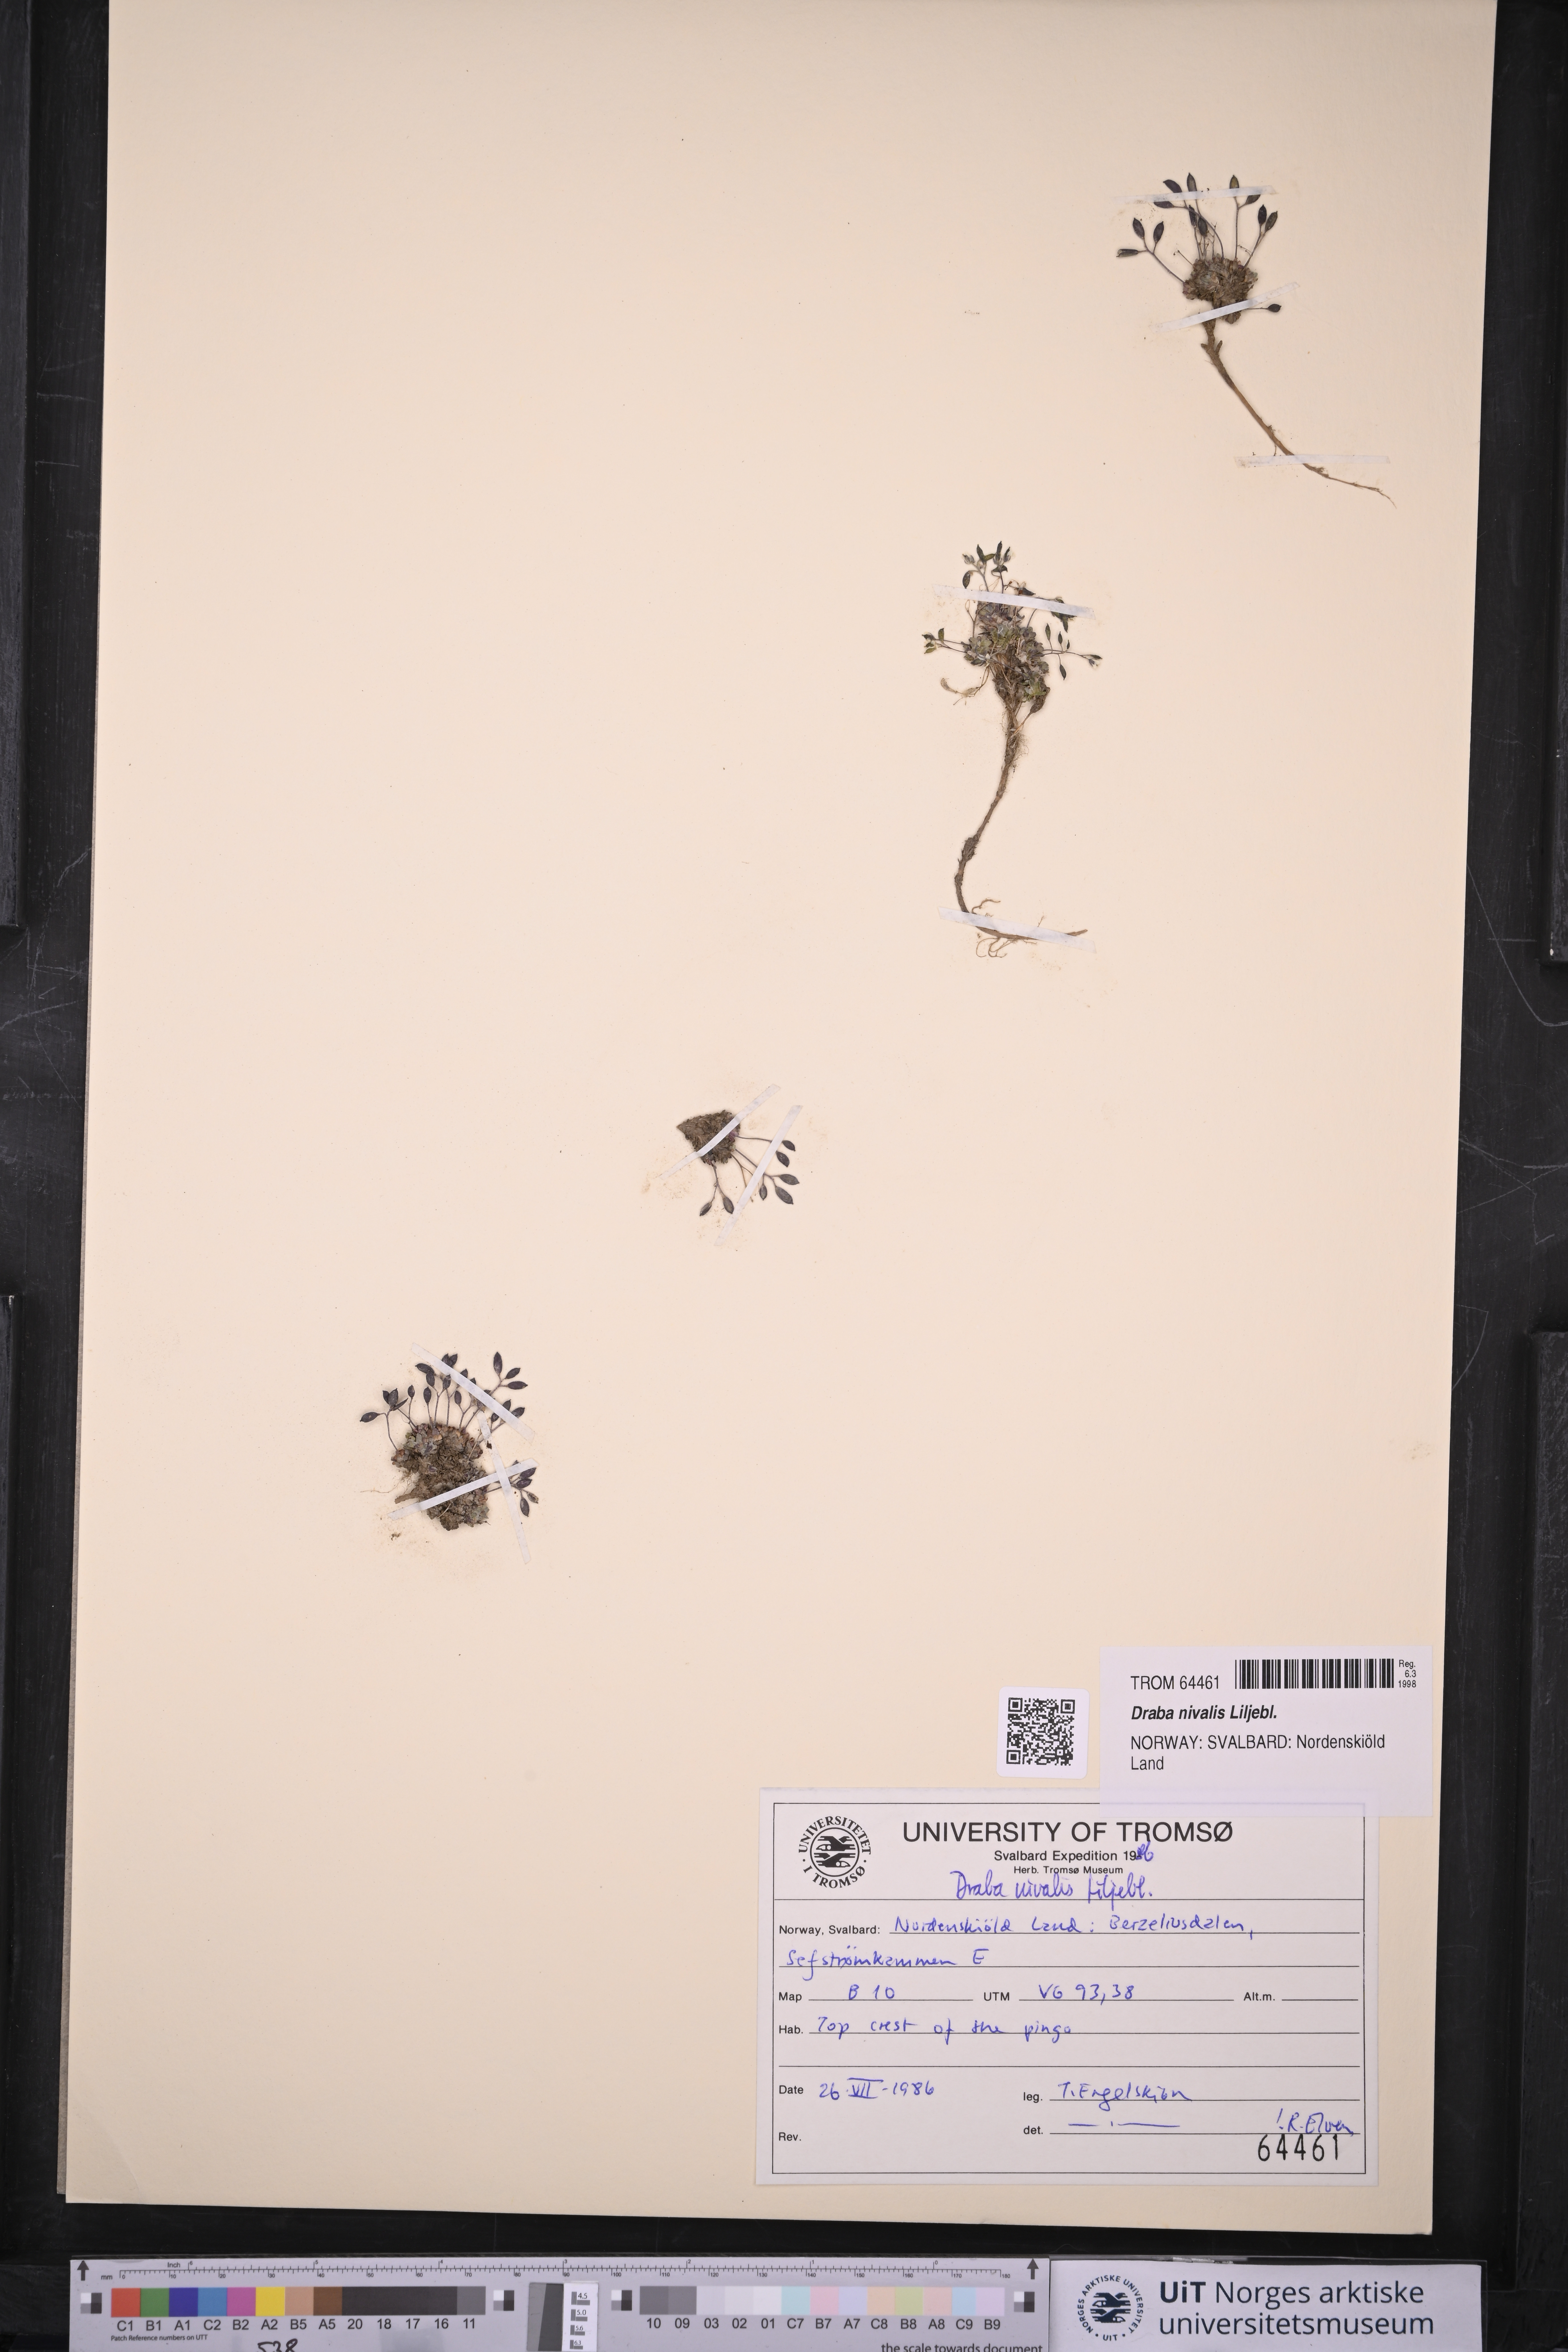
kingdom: Plantae
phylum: Tracheophyta
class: Magnoliopsida
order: Brassicales
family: Brassicaceae
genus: Draba
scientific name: Draba nivalis
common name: Snow draba
